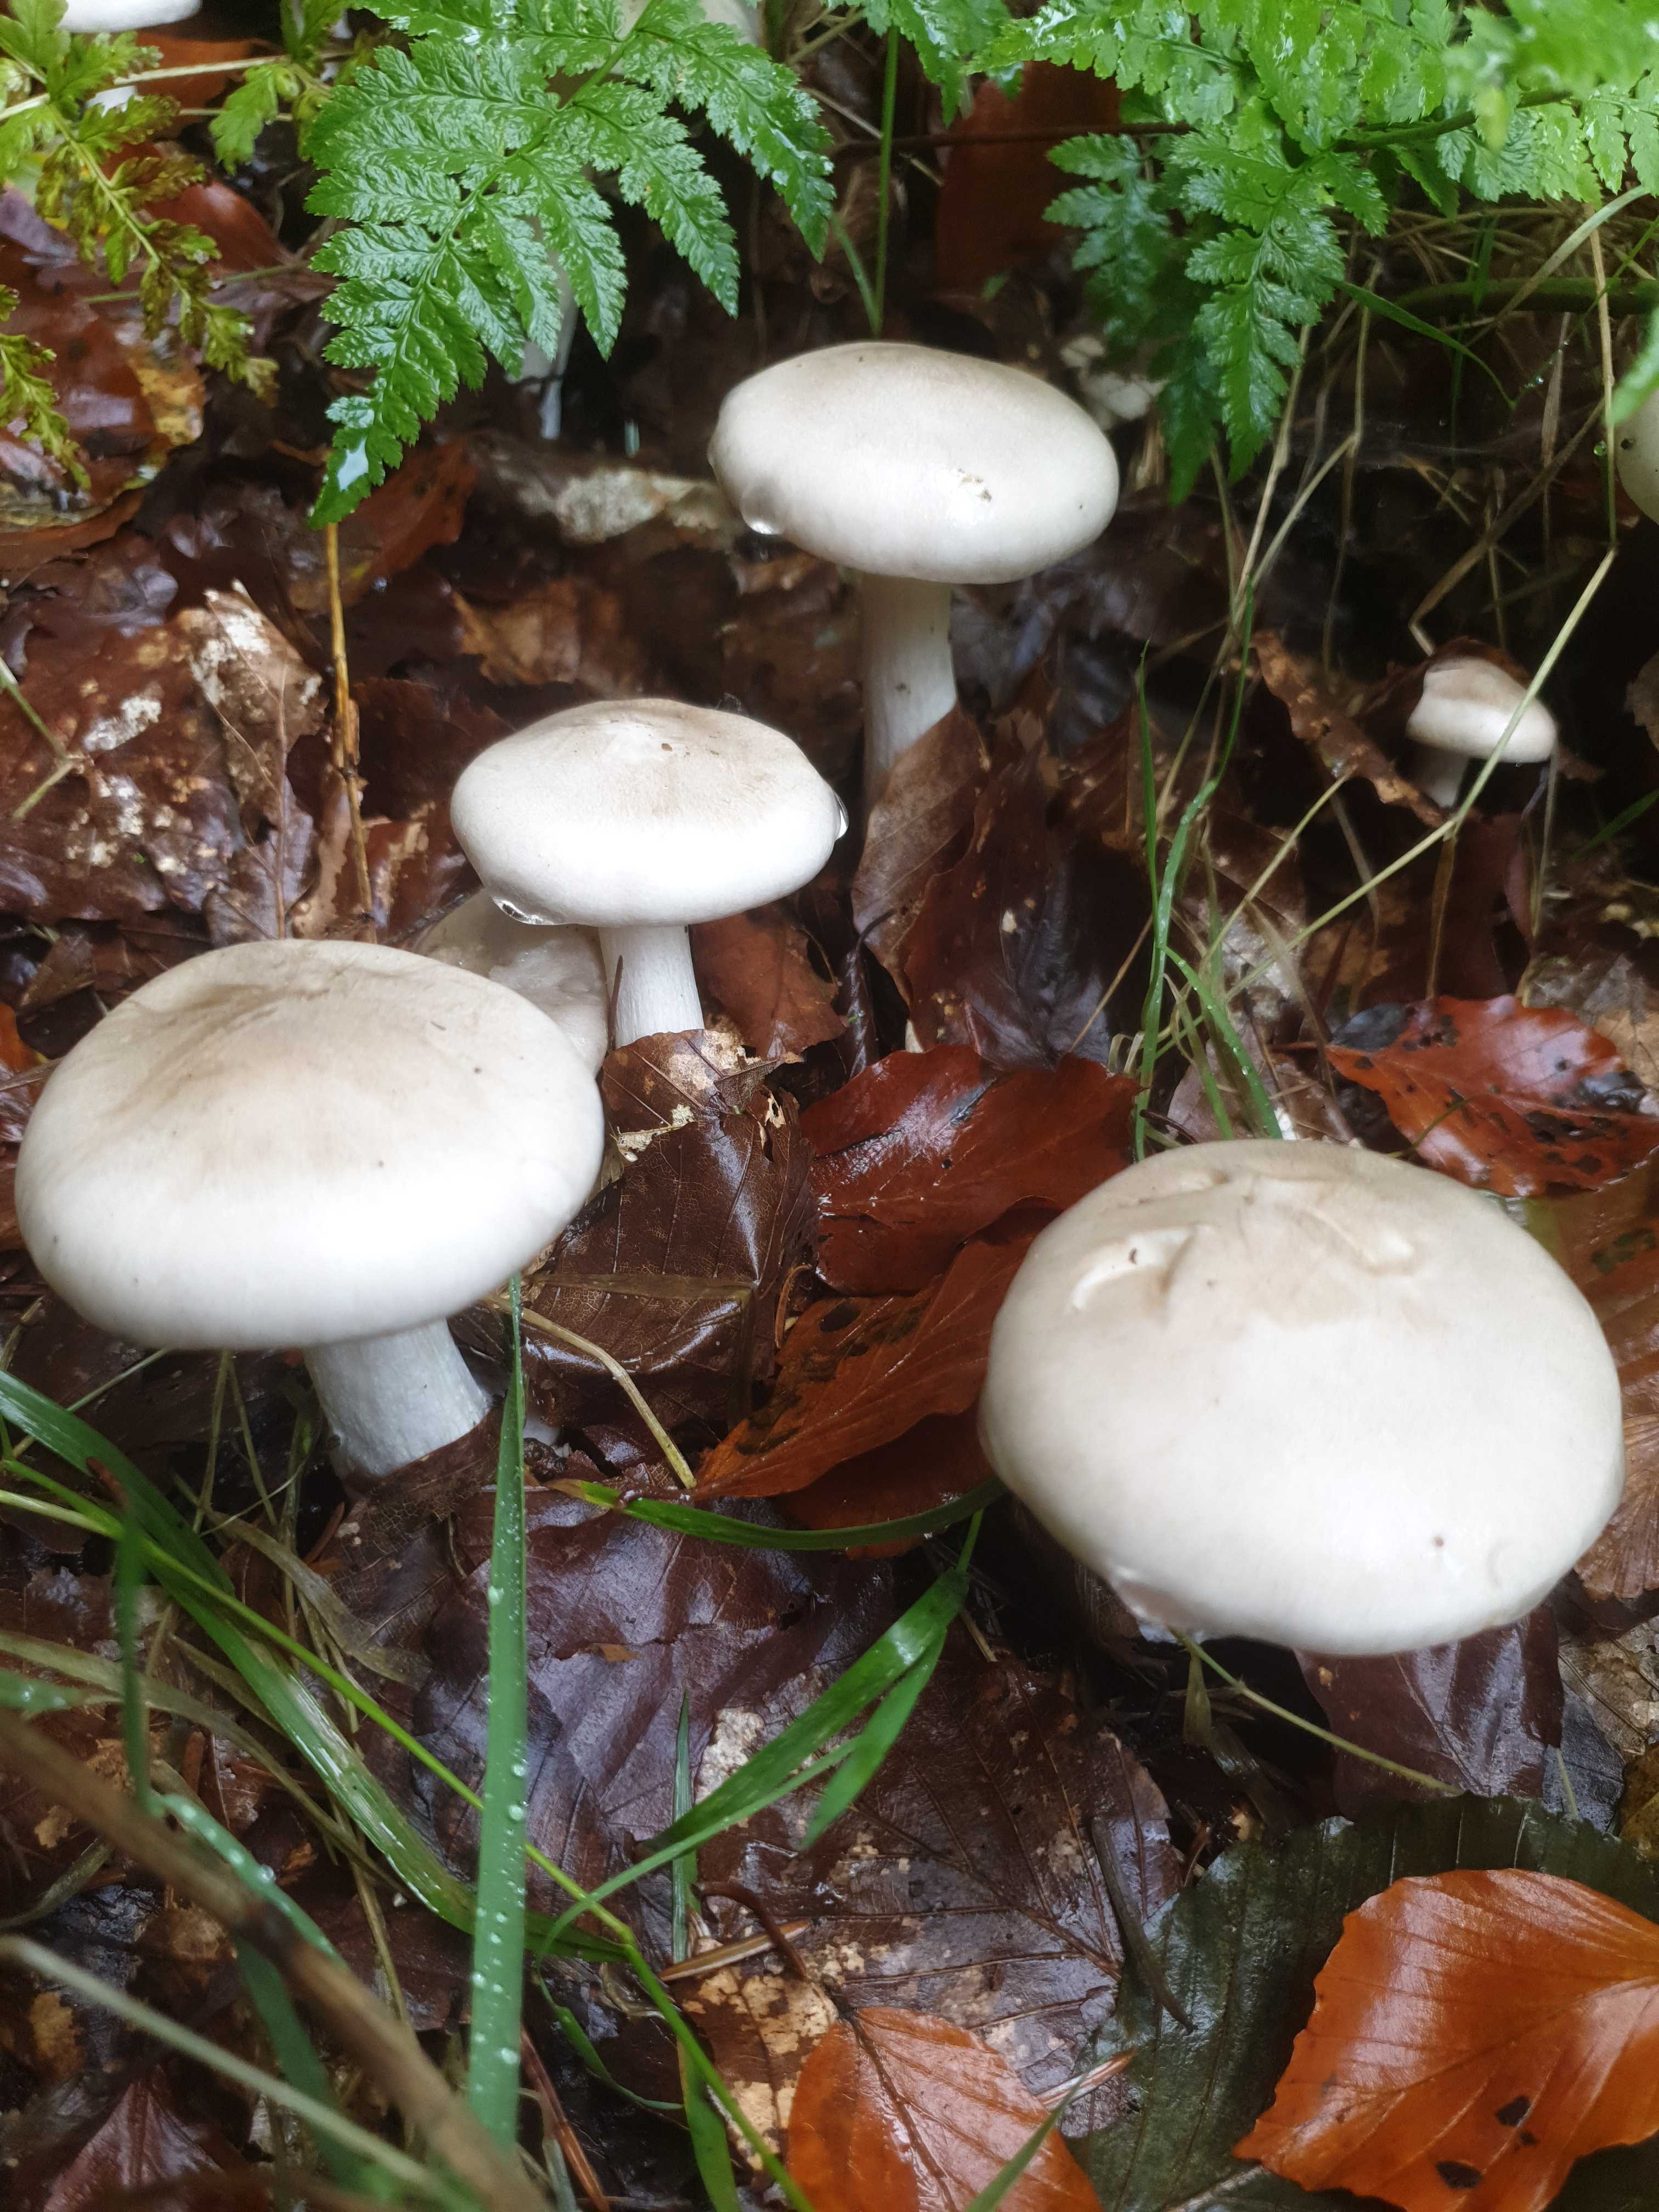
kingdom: Fungi
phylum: Basidiomycota
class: Agaricomycetes
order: Agaricales
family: Tricholomataceae
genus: Clitocybe
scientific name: Clitocybe nebularis
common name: tåge-tragthat
